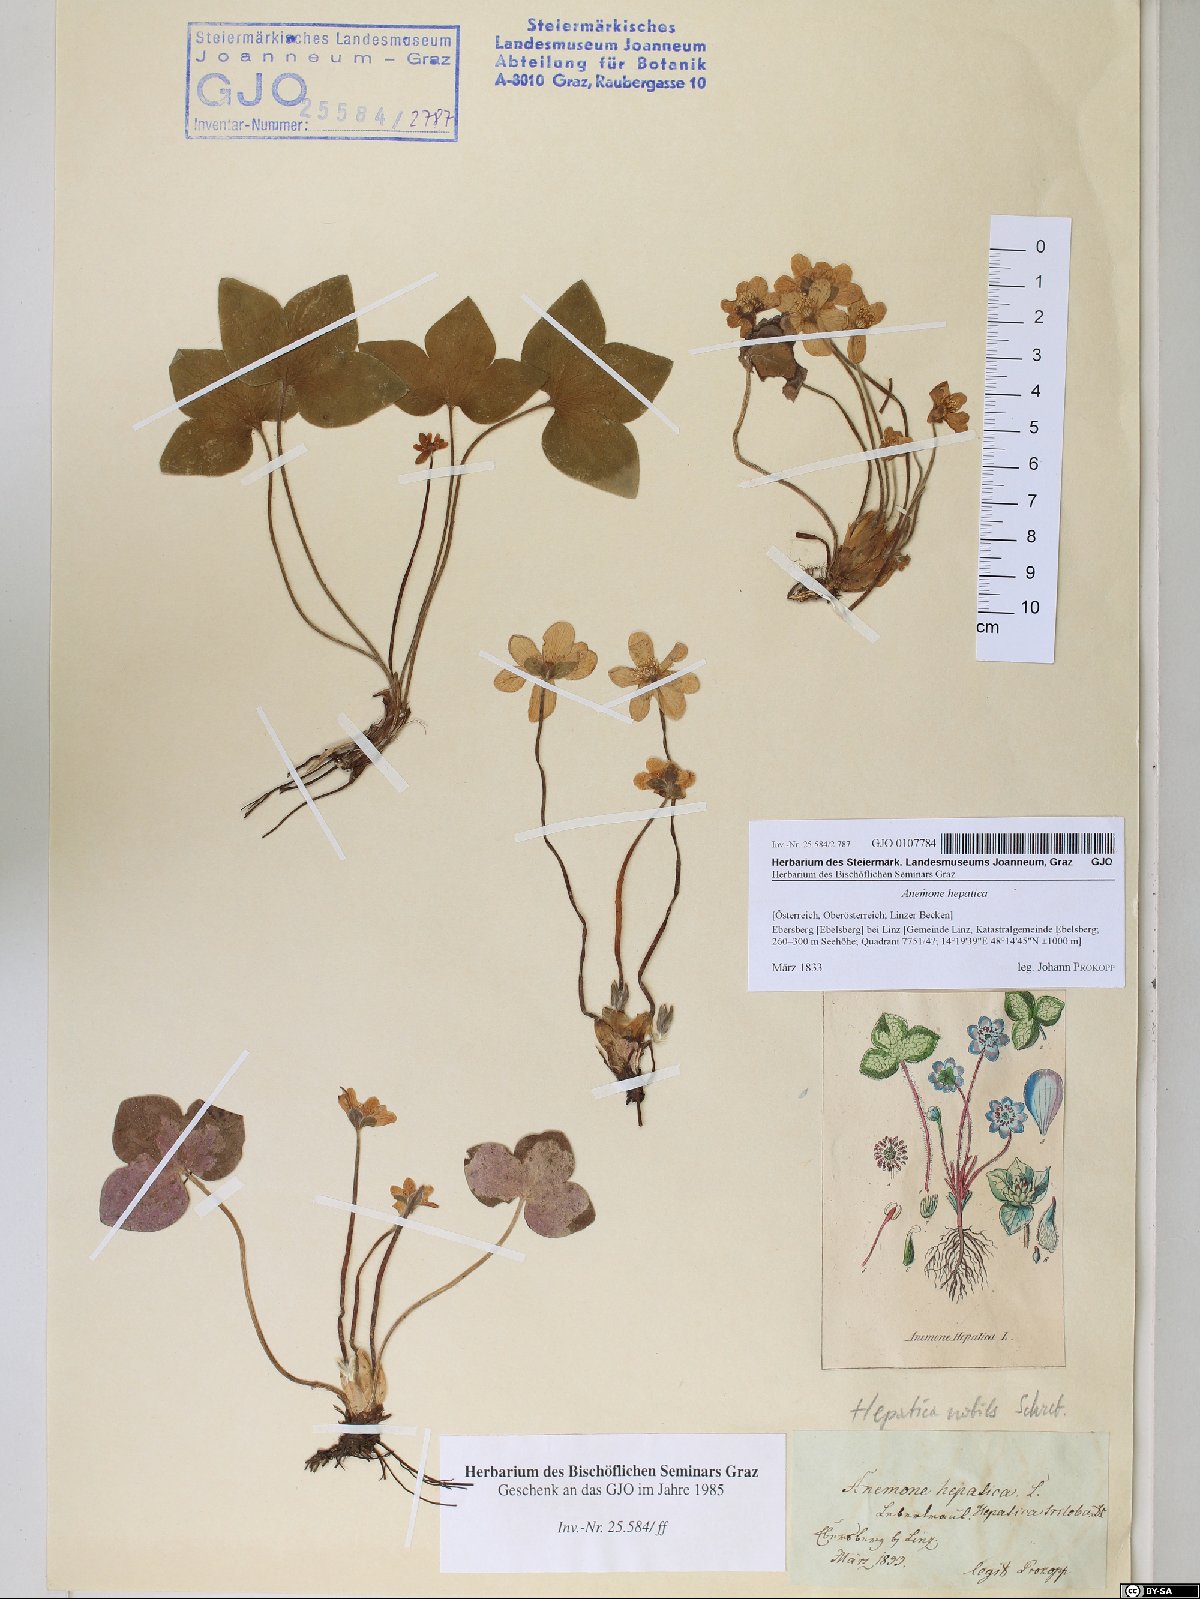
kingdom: Plantae
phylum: Tracheophyta
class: Magnoliopsida
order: Ranunculales
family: Ranunculaceae
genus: Hepatica
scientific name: Hepatica nobilis
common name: Liverleaf
